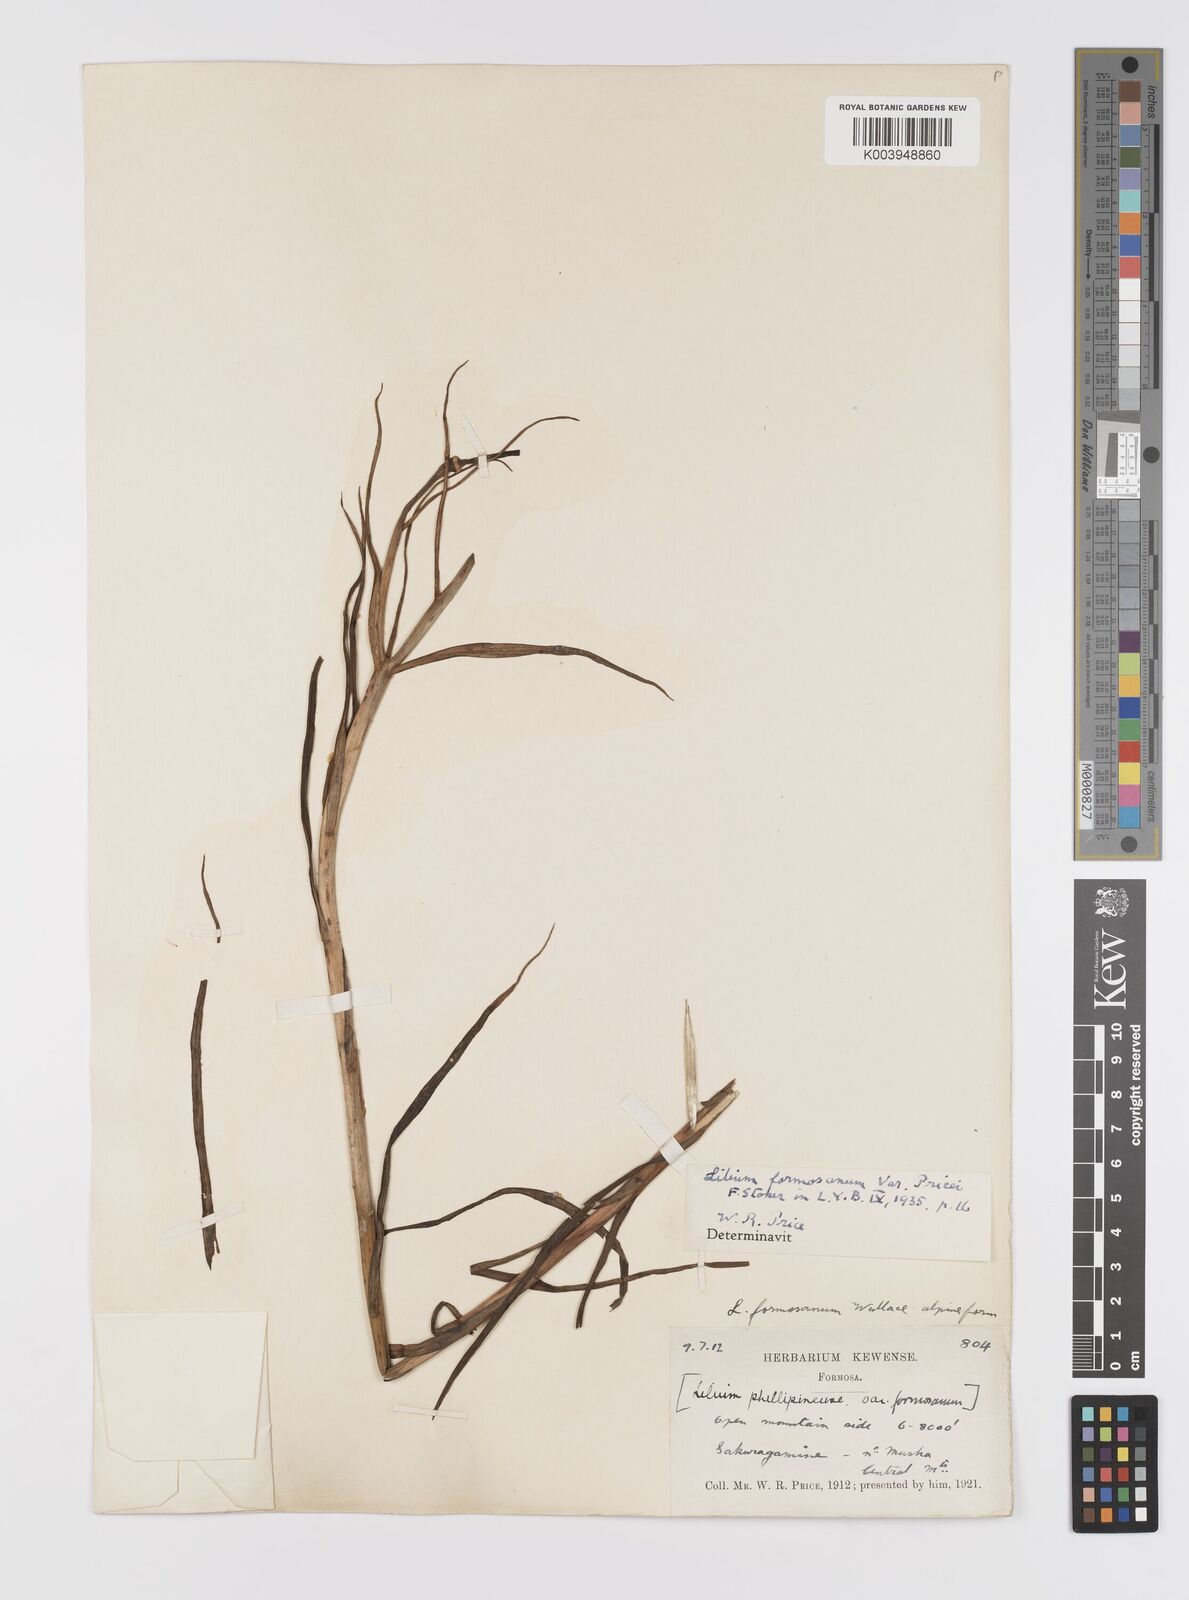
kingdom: Plantae
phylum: Tracheophyta
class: Liliopsida
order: Liliales
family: Liliaceae
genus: Lilium
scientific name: Lilium formosanum
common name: Formosa lily
